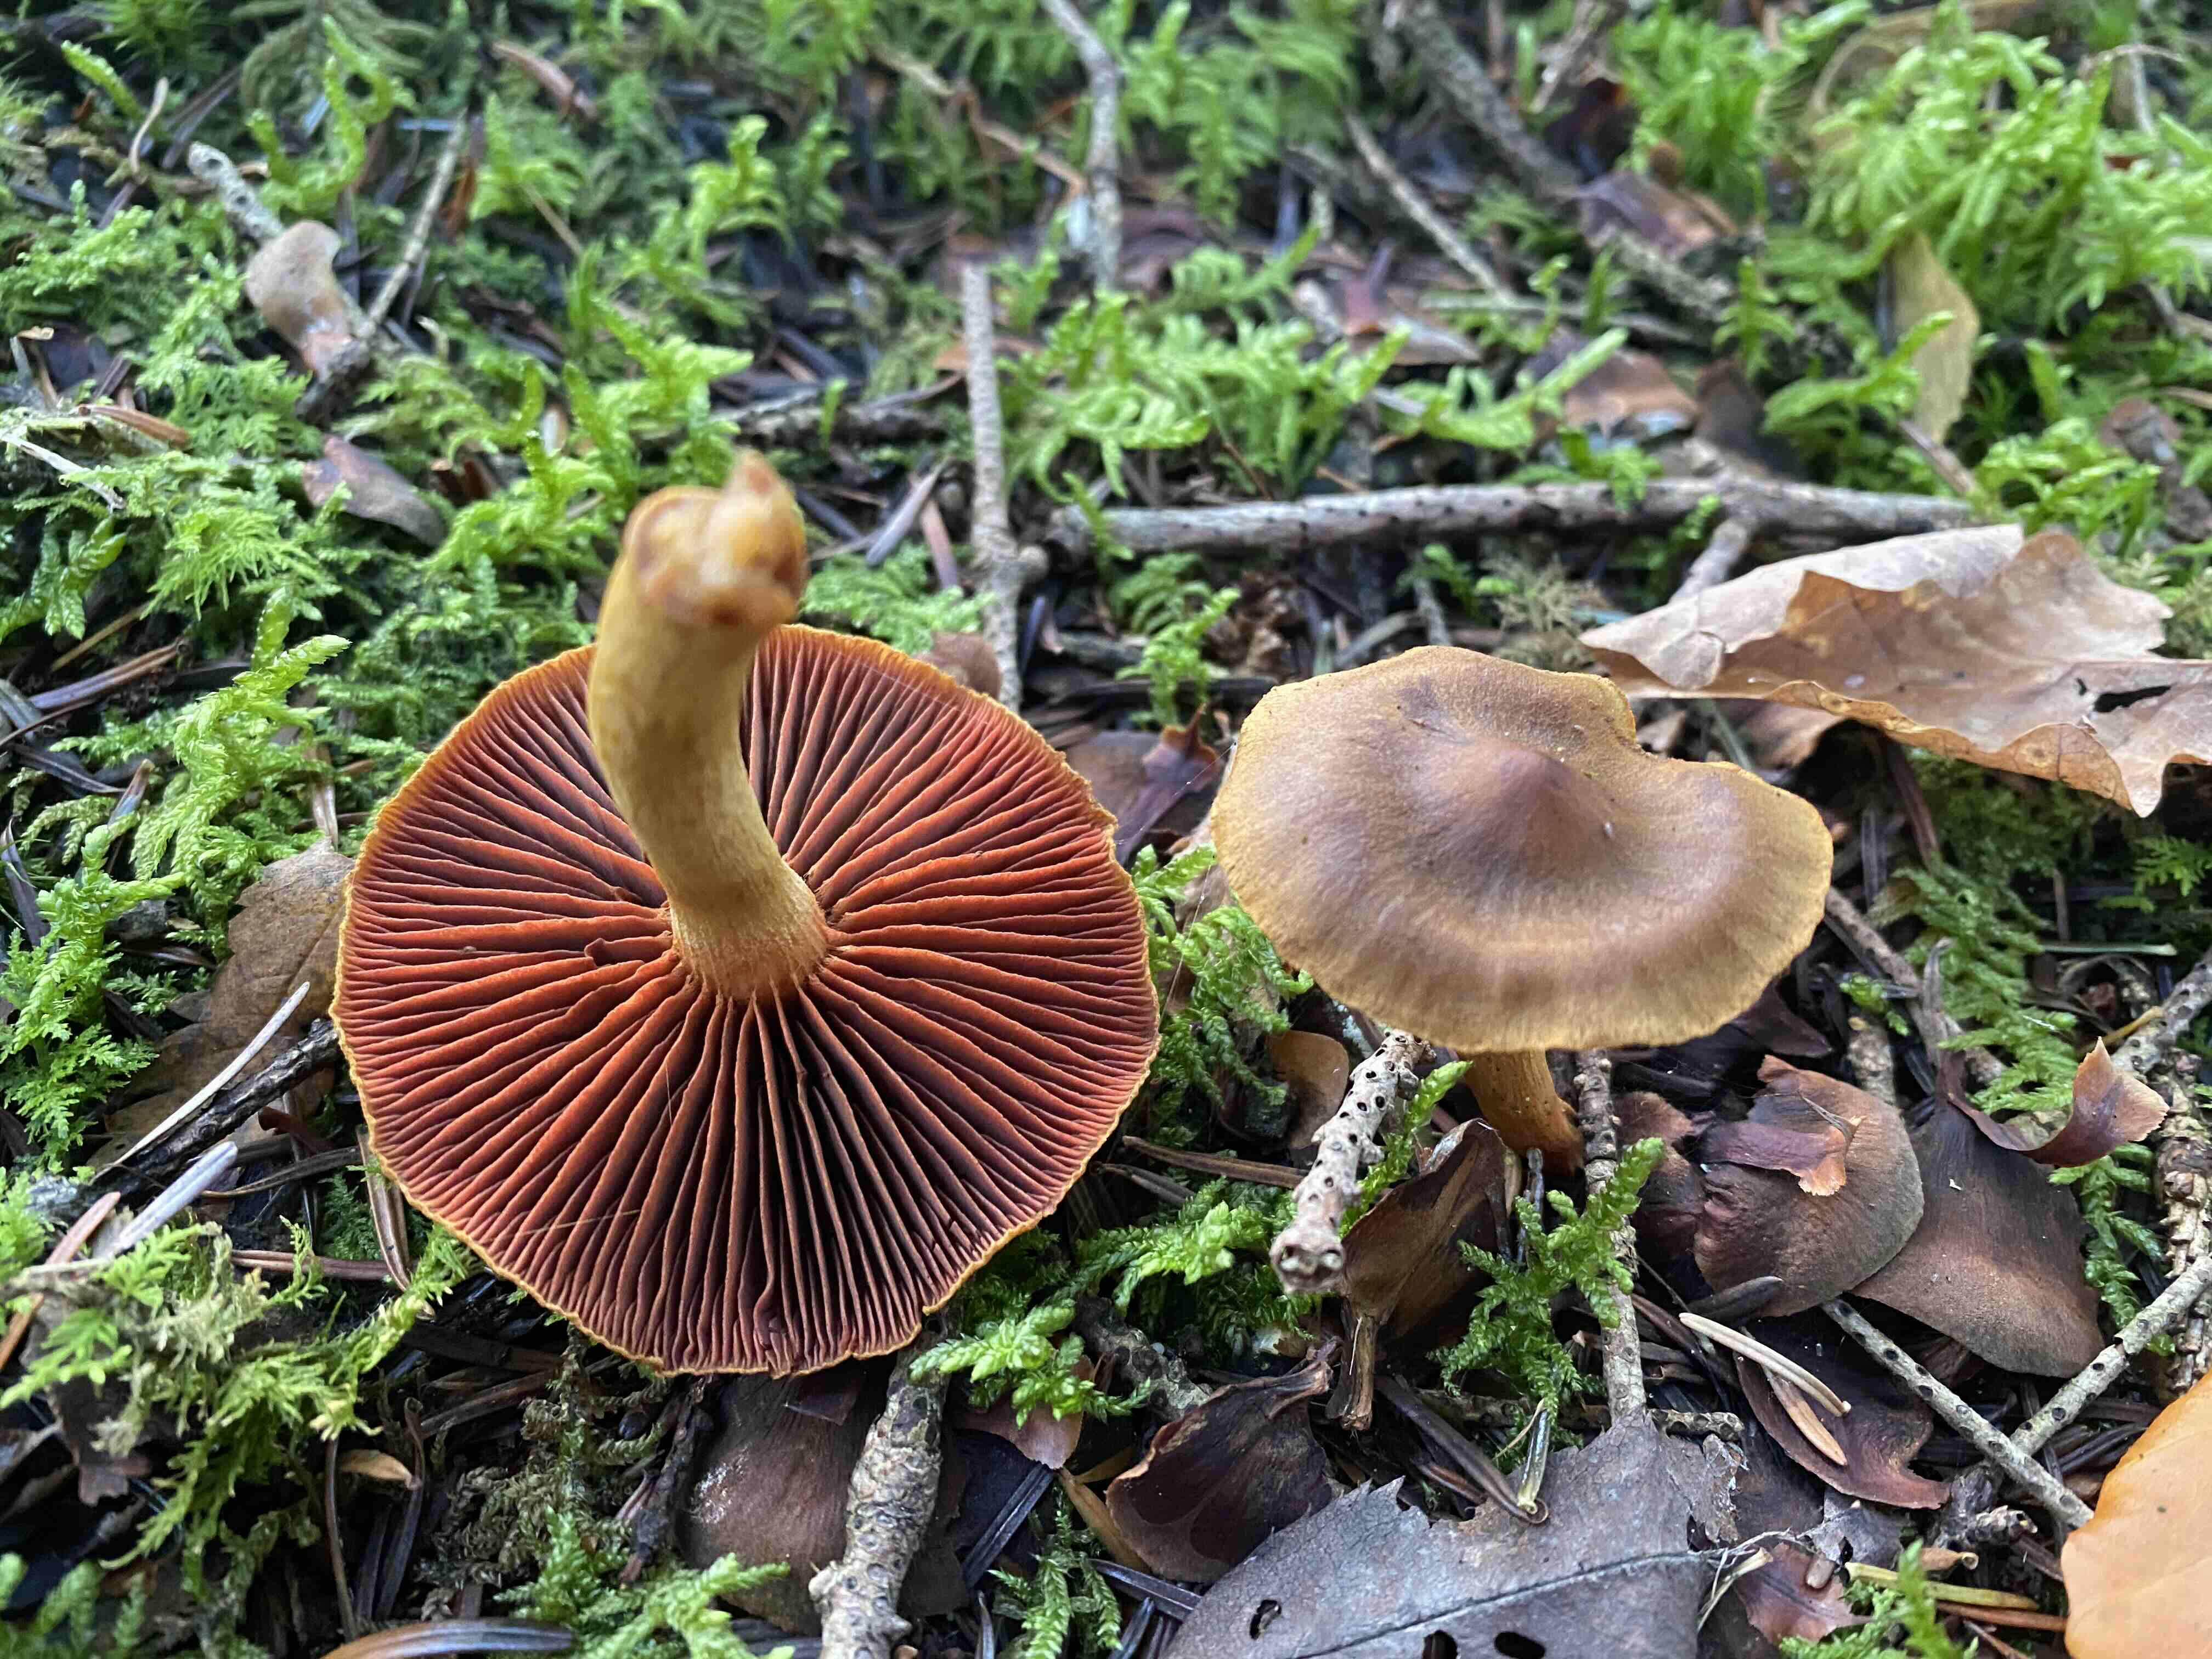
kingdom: Fungi
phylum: Basidiomycota
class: Agaricomycetes
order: Agaricales
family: Cortinariaceae
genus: Cortinarius
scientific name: Cortinarius
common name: cinnoberbladet slørhat
